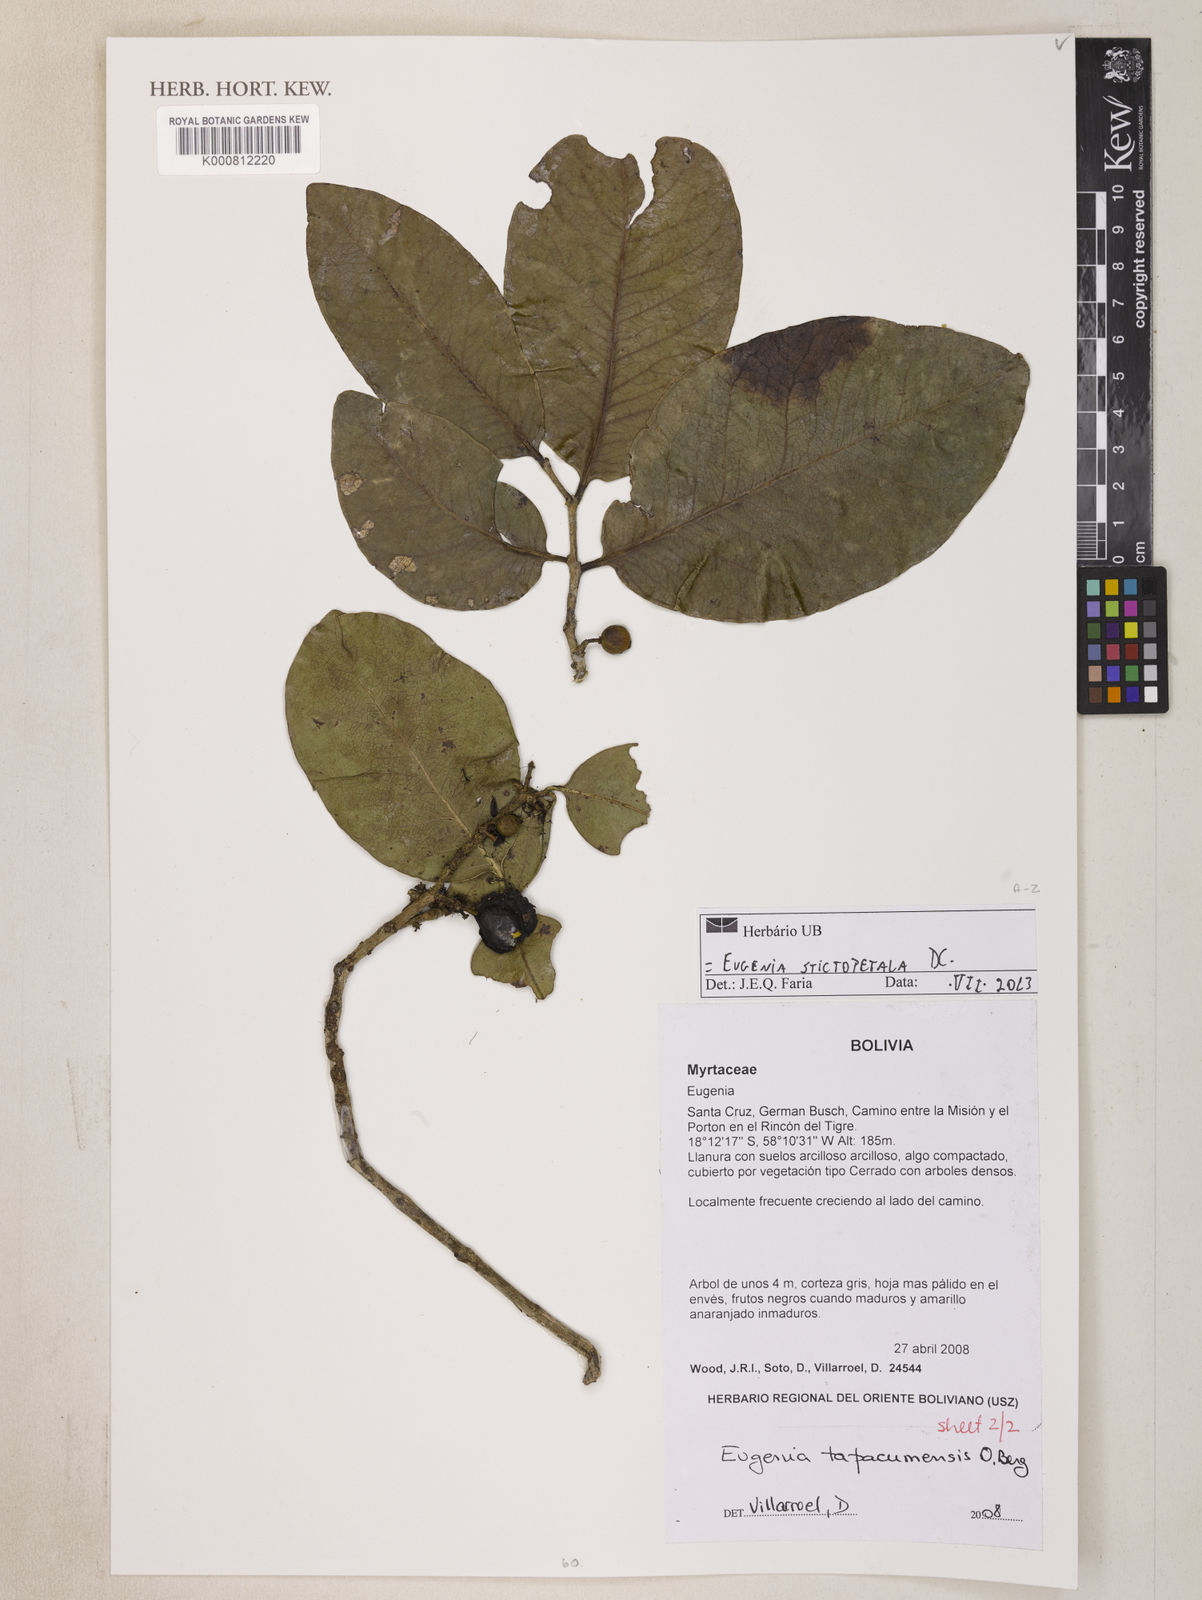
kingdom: Plantae
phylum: Tracheophyta
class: Magnoliopsida
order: Myrtales
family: Myrtaceae
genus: Eugenia
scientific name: Eugenia stictopetala
